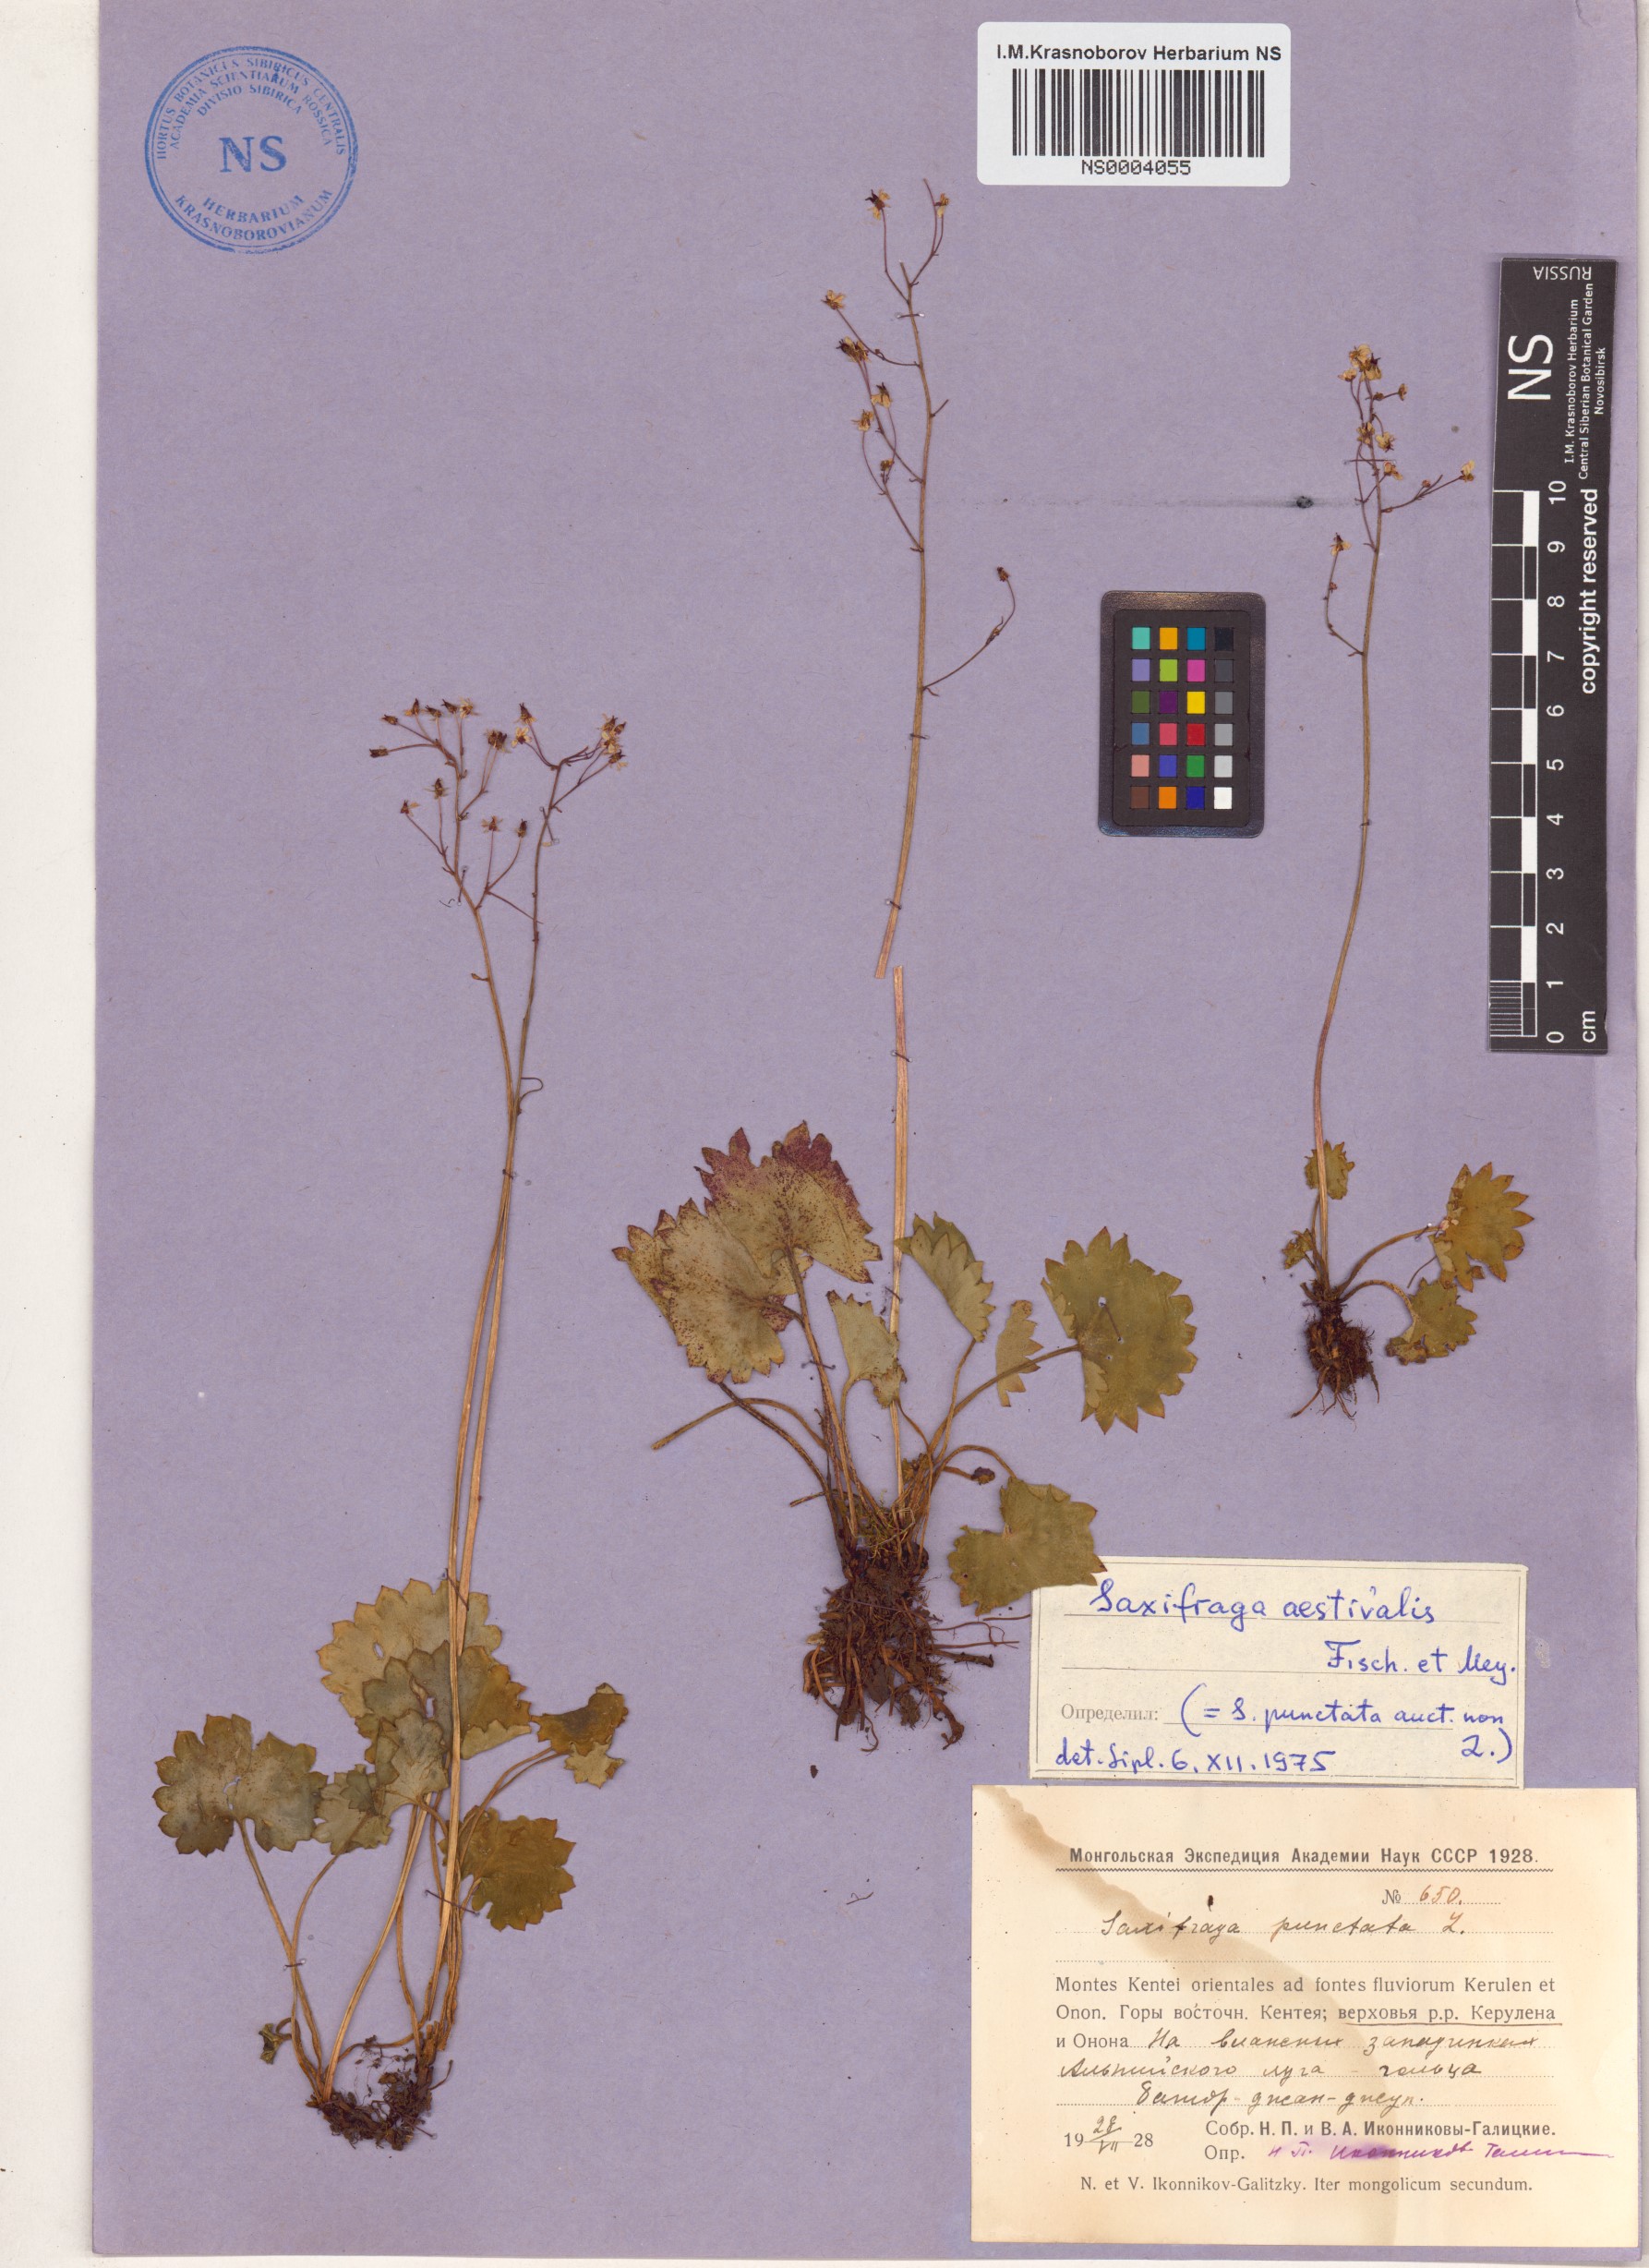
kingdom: Plantae
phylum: Tracheophyta
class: Magnoliopsida
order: Saxifragales
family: Saxifragaceae
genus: Micranthes
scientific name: Micranthes nelsoniana
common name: Nelson's saxifrage
